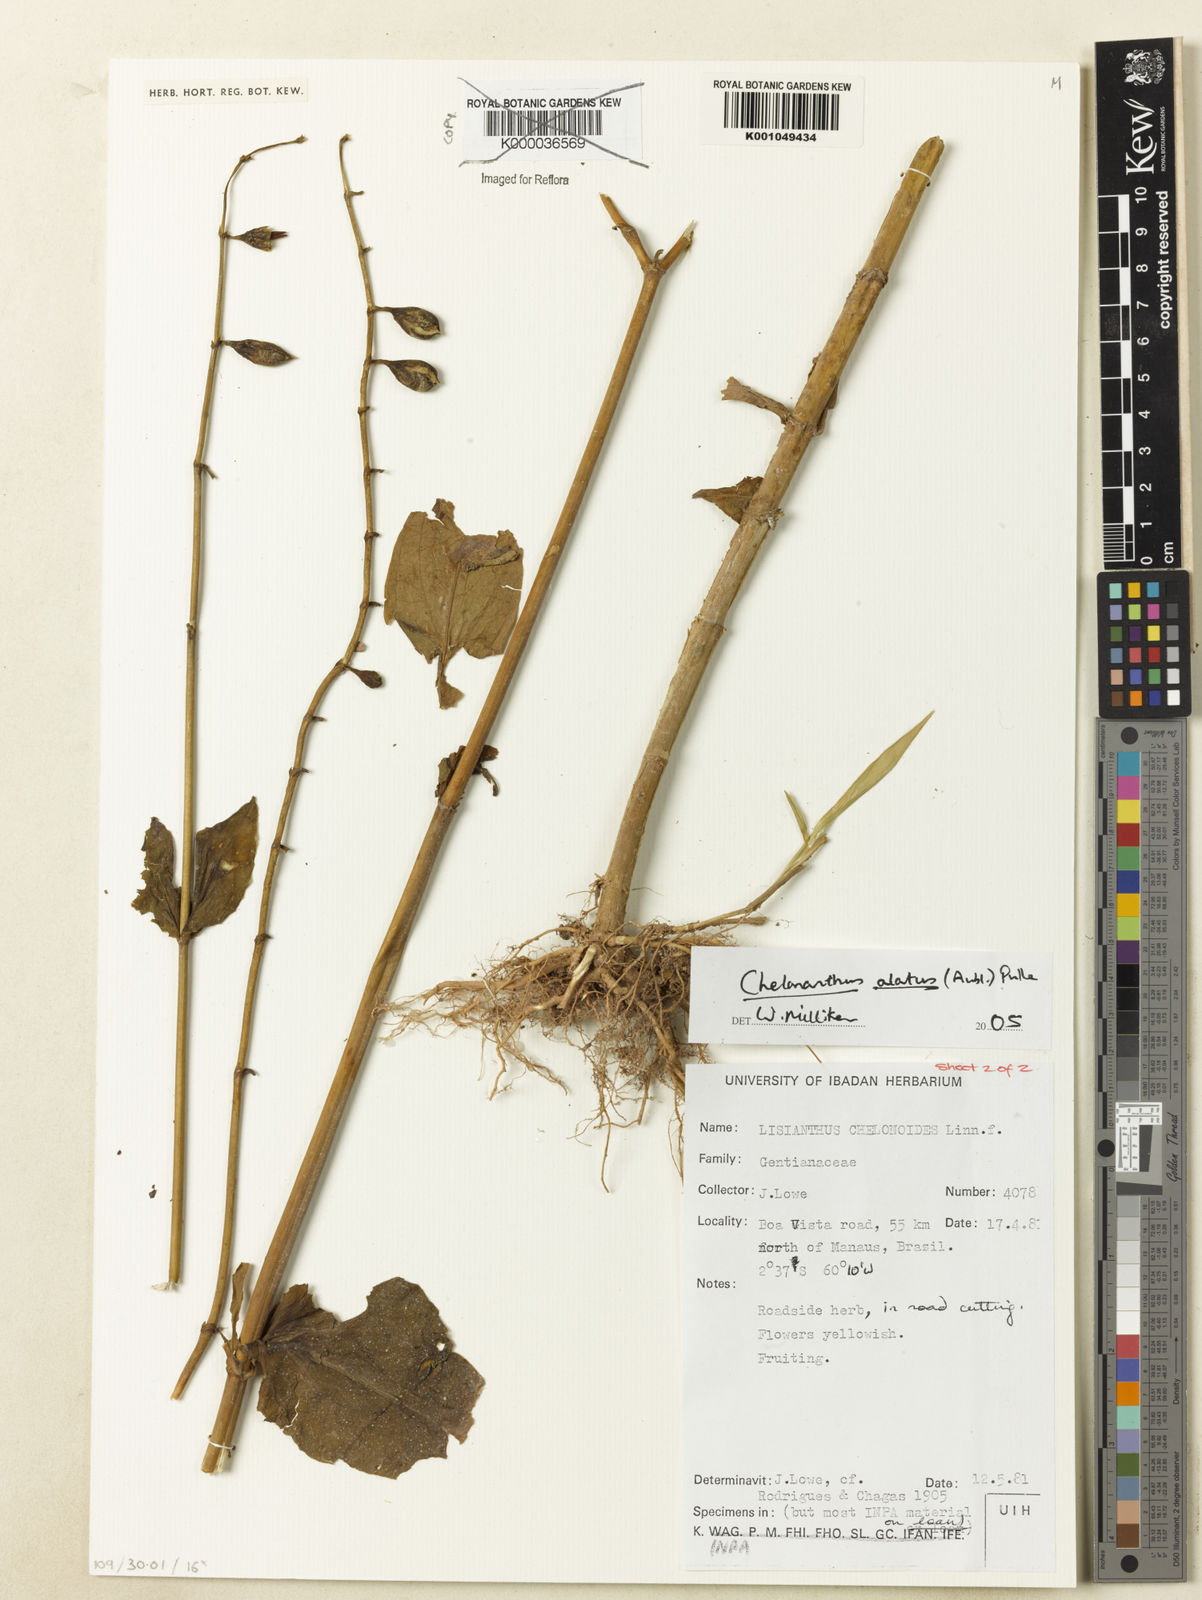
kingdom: Plantae
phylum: Tracheophyta
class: Magnoliopsida
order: Gentianales
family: Gentianaceae
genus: Chelonanthus
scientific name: Chelonanthus albus
